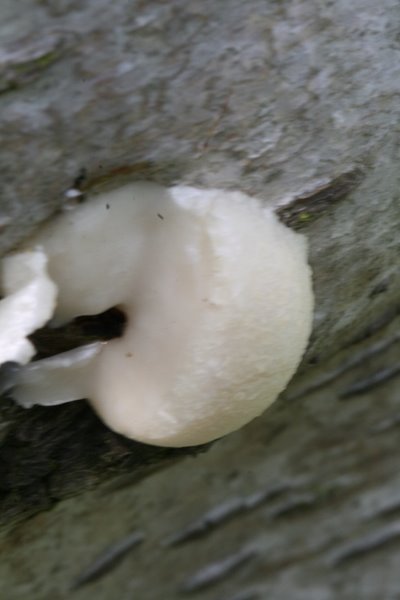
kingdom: Protozoa
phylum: Mycetozoa
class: Myxomycetes
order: Cribrariales
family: Tubiferaceae
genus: Reticularia
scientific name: Reticularia lycoperdon
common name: skinnende støvpude
